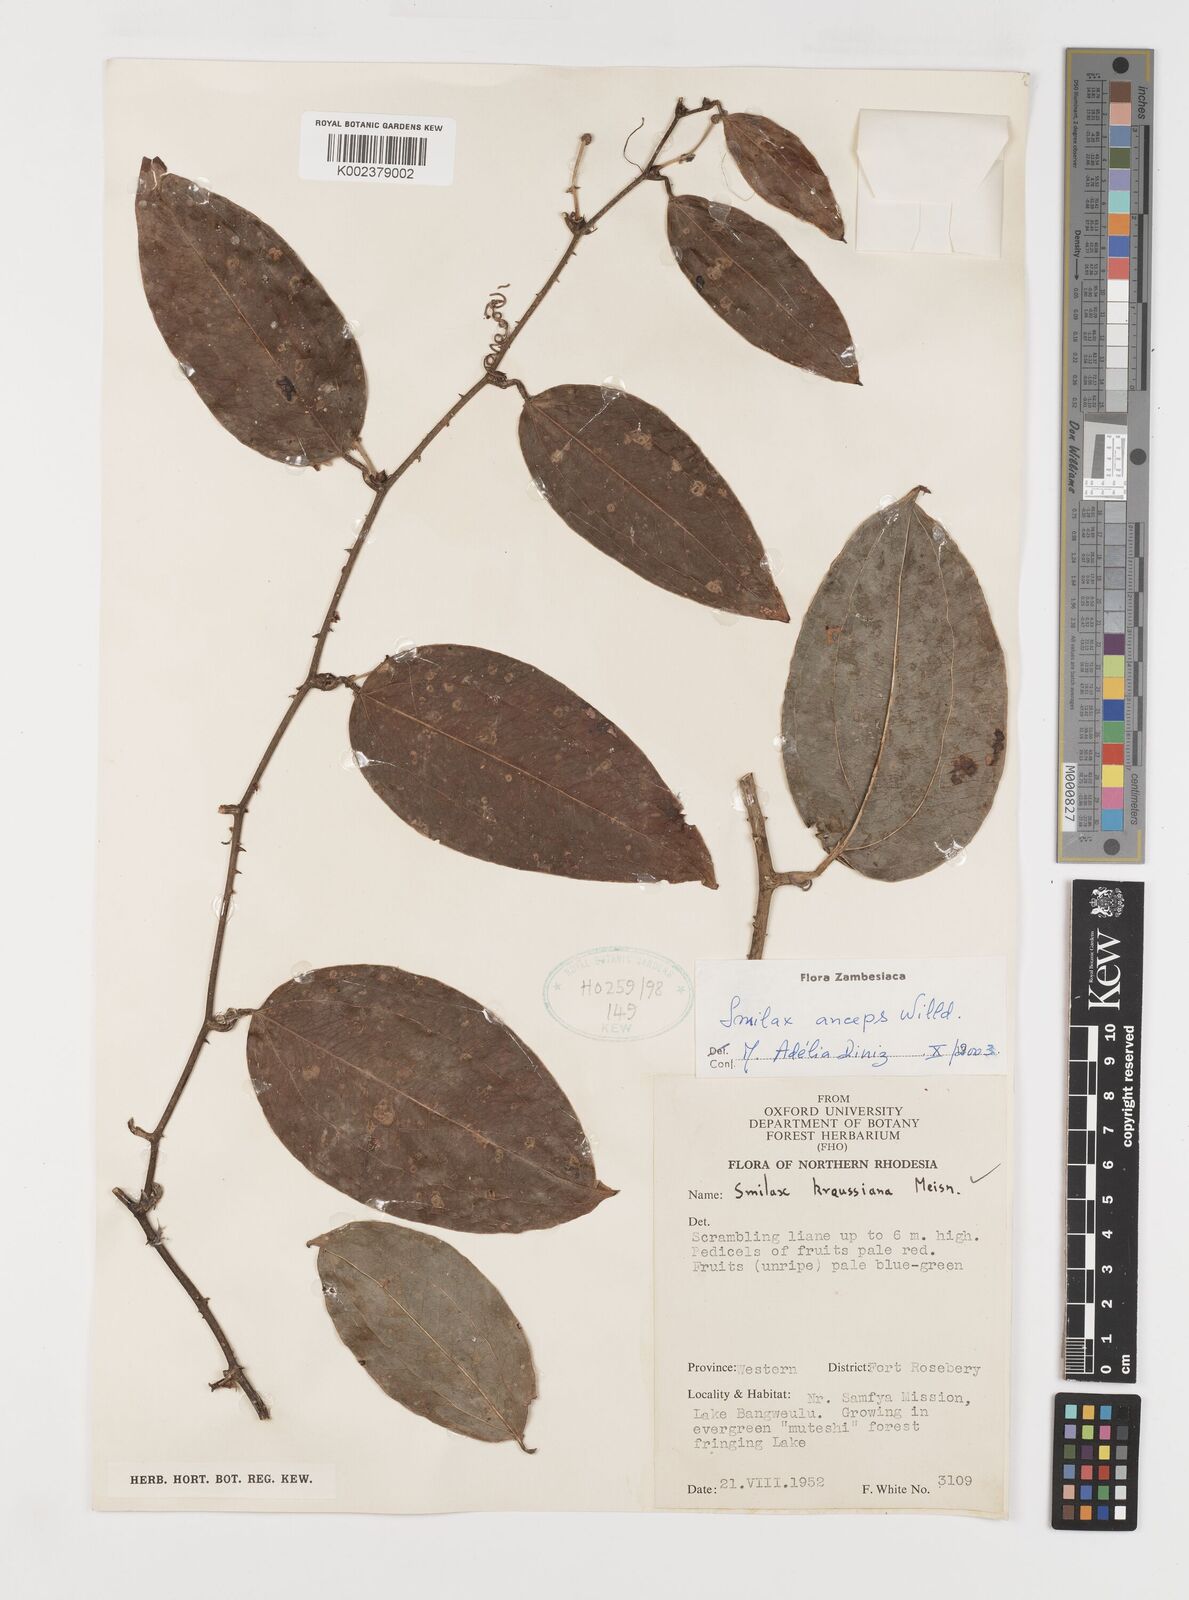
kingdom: Plantae
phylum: Tracheophyta
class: Liliopsida
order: Liliales
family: Smilacaceae
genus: Smilax
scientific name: Smilax anceps
